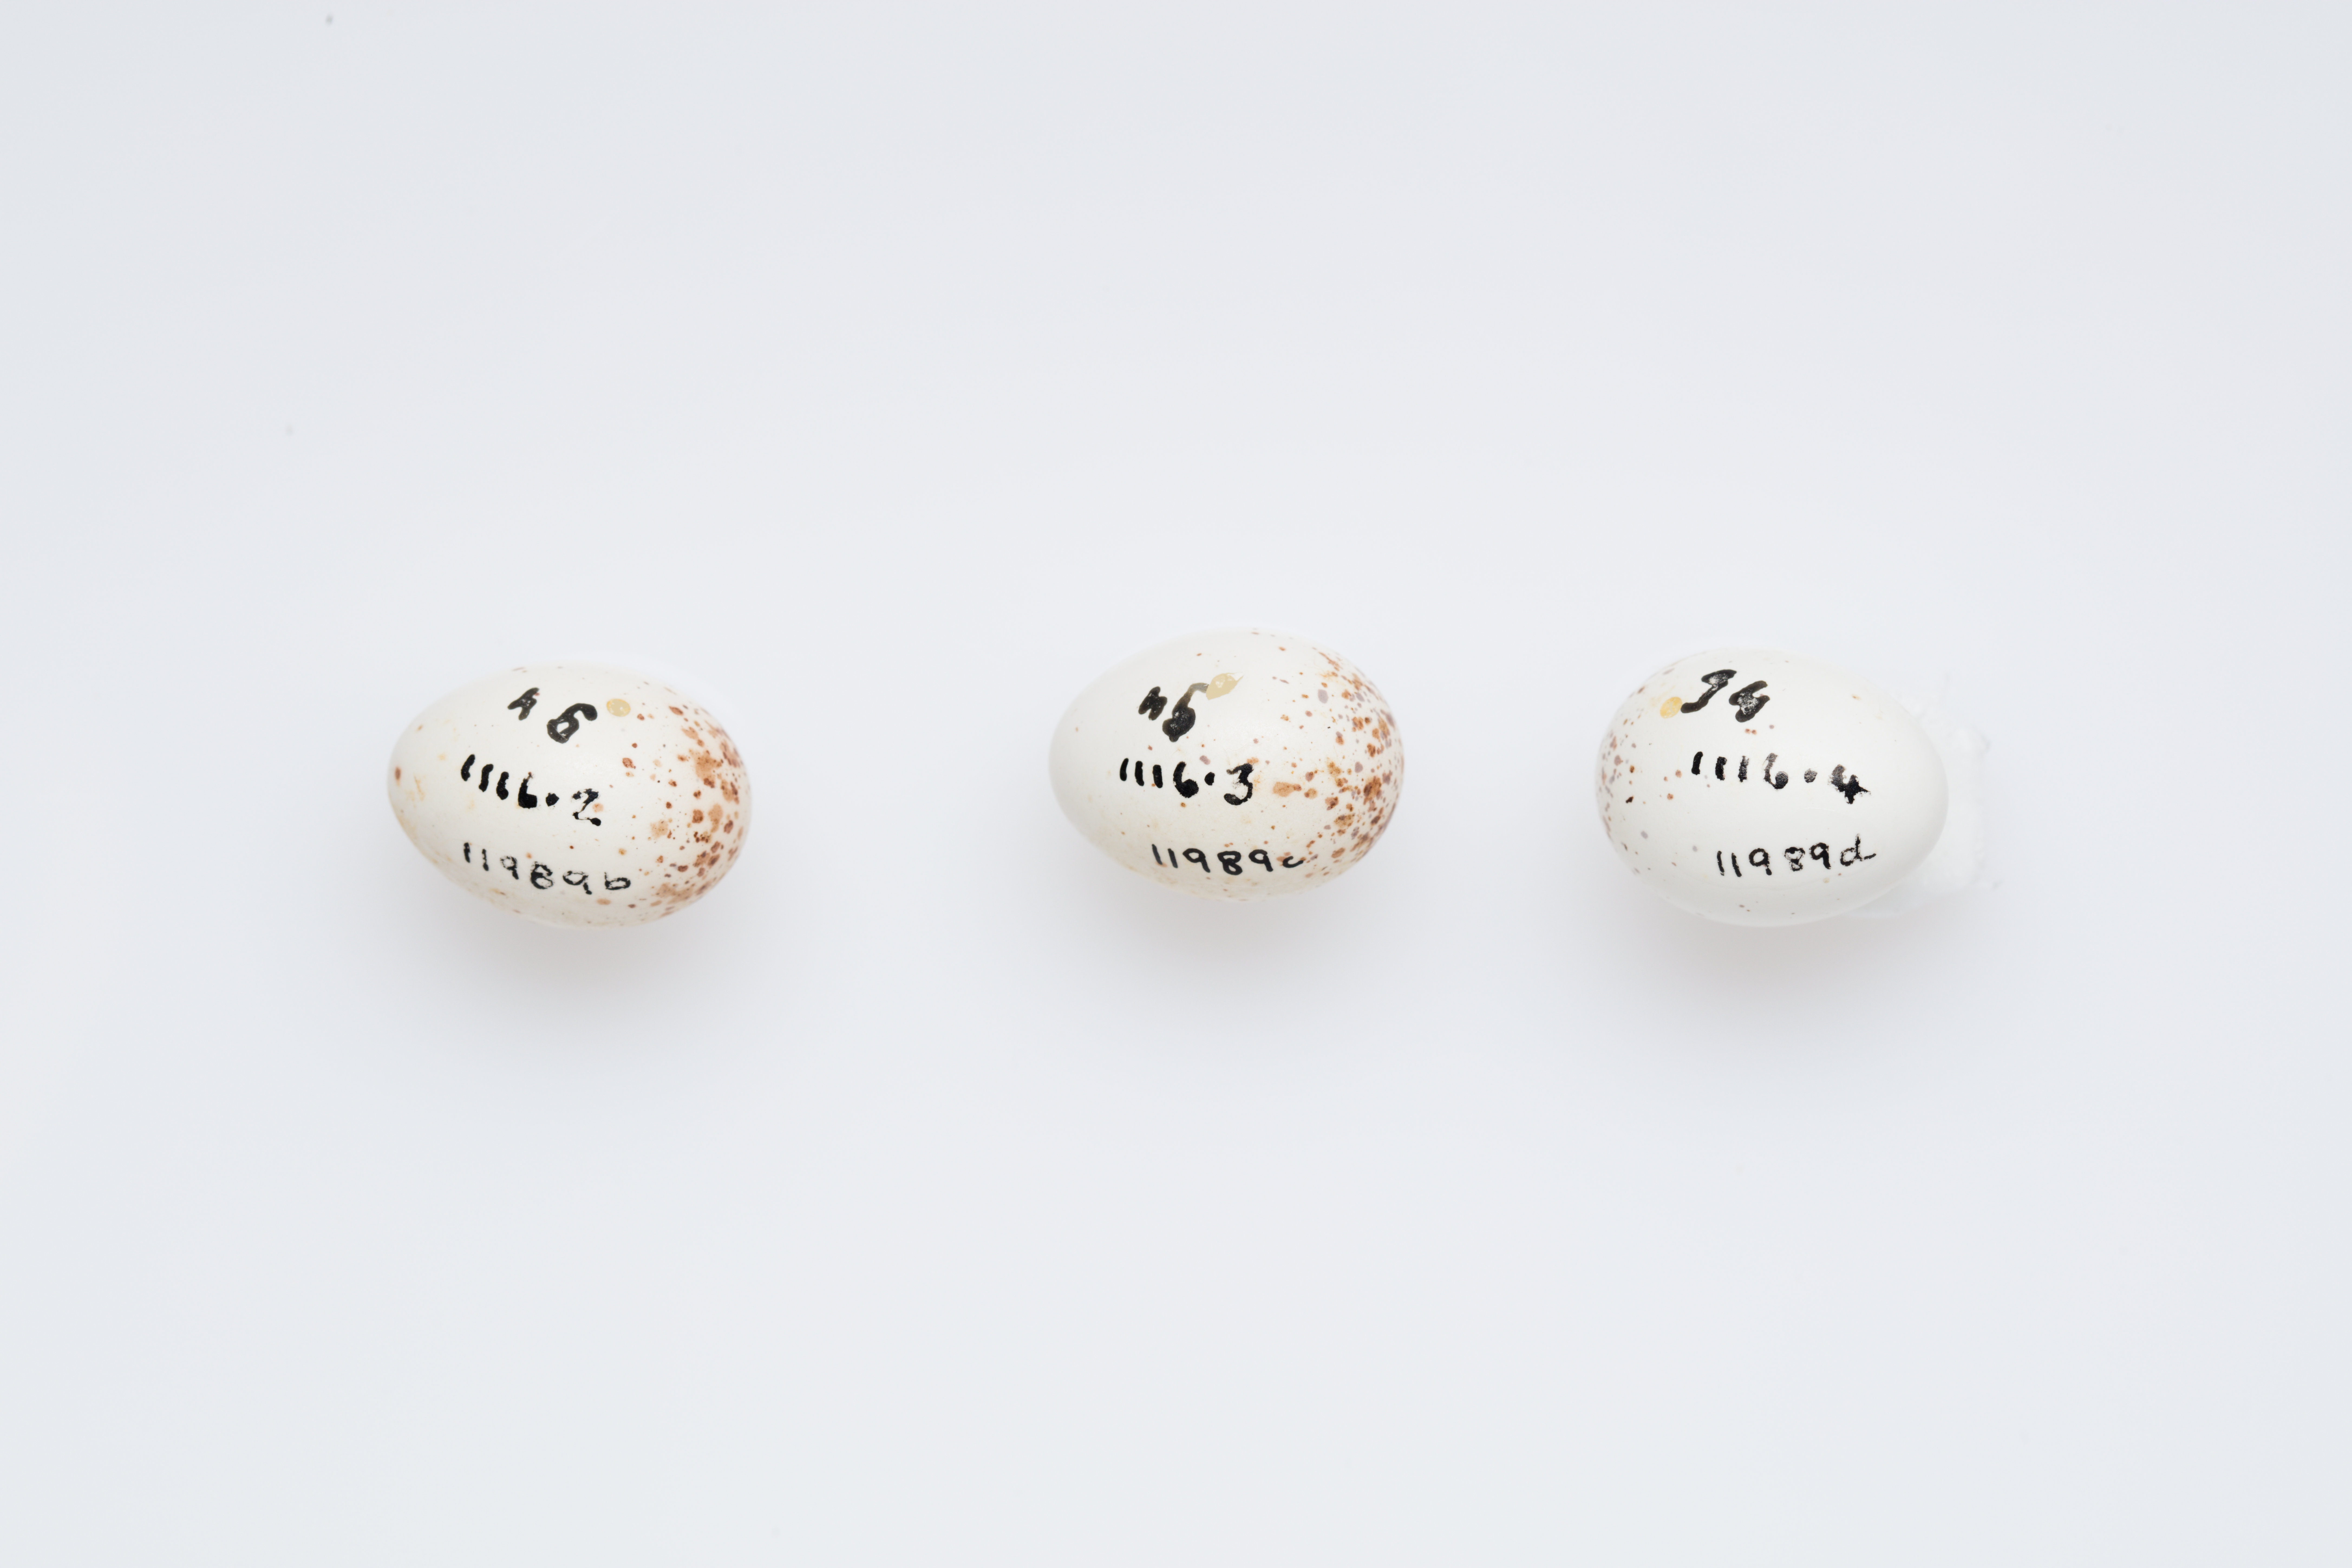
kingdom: Animalia
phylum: Chordata
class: Aves
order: Passeriformes
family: Tyrannidae
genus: Empidonax
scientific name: Empidonax difficilis
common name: Pacific-slope flycatcher
